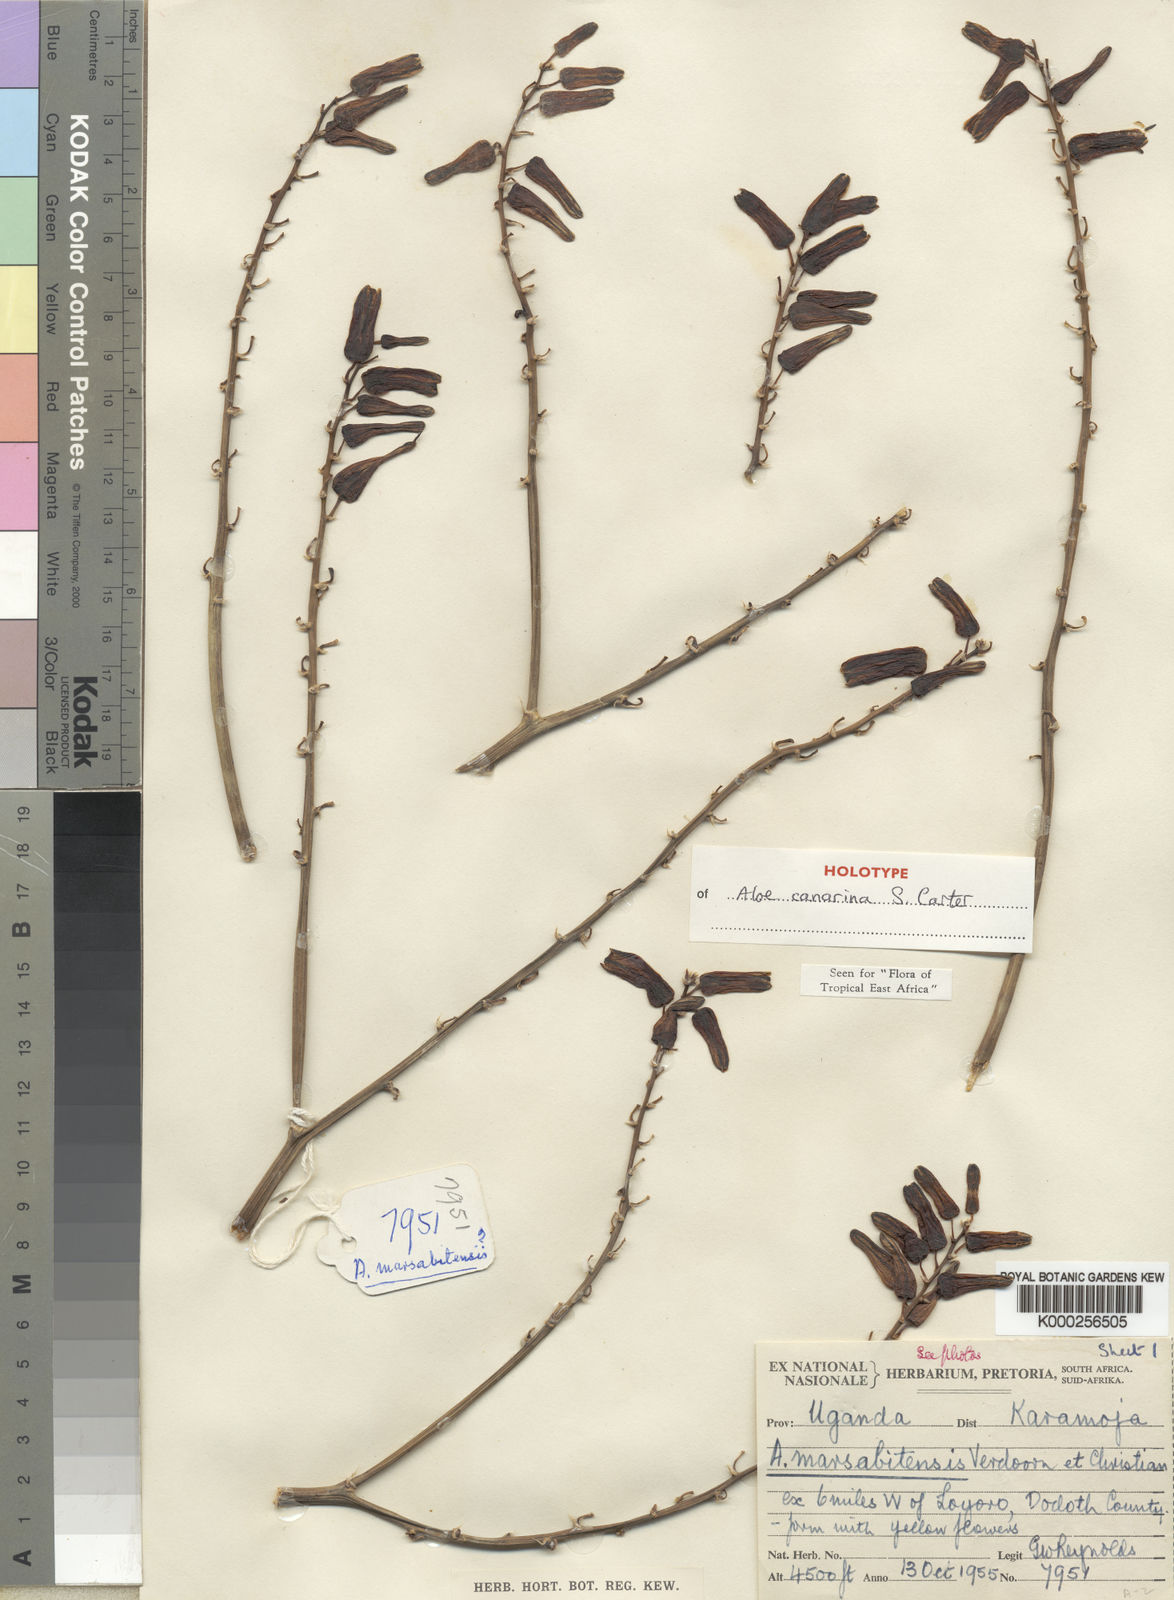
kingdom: Plantae
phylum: Tracheophyta
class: Liliopsida
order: Asparagales
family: Asphodelaceae
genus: Aloe
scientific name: Aloe canarina
